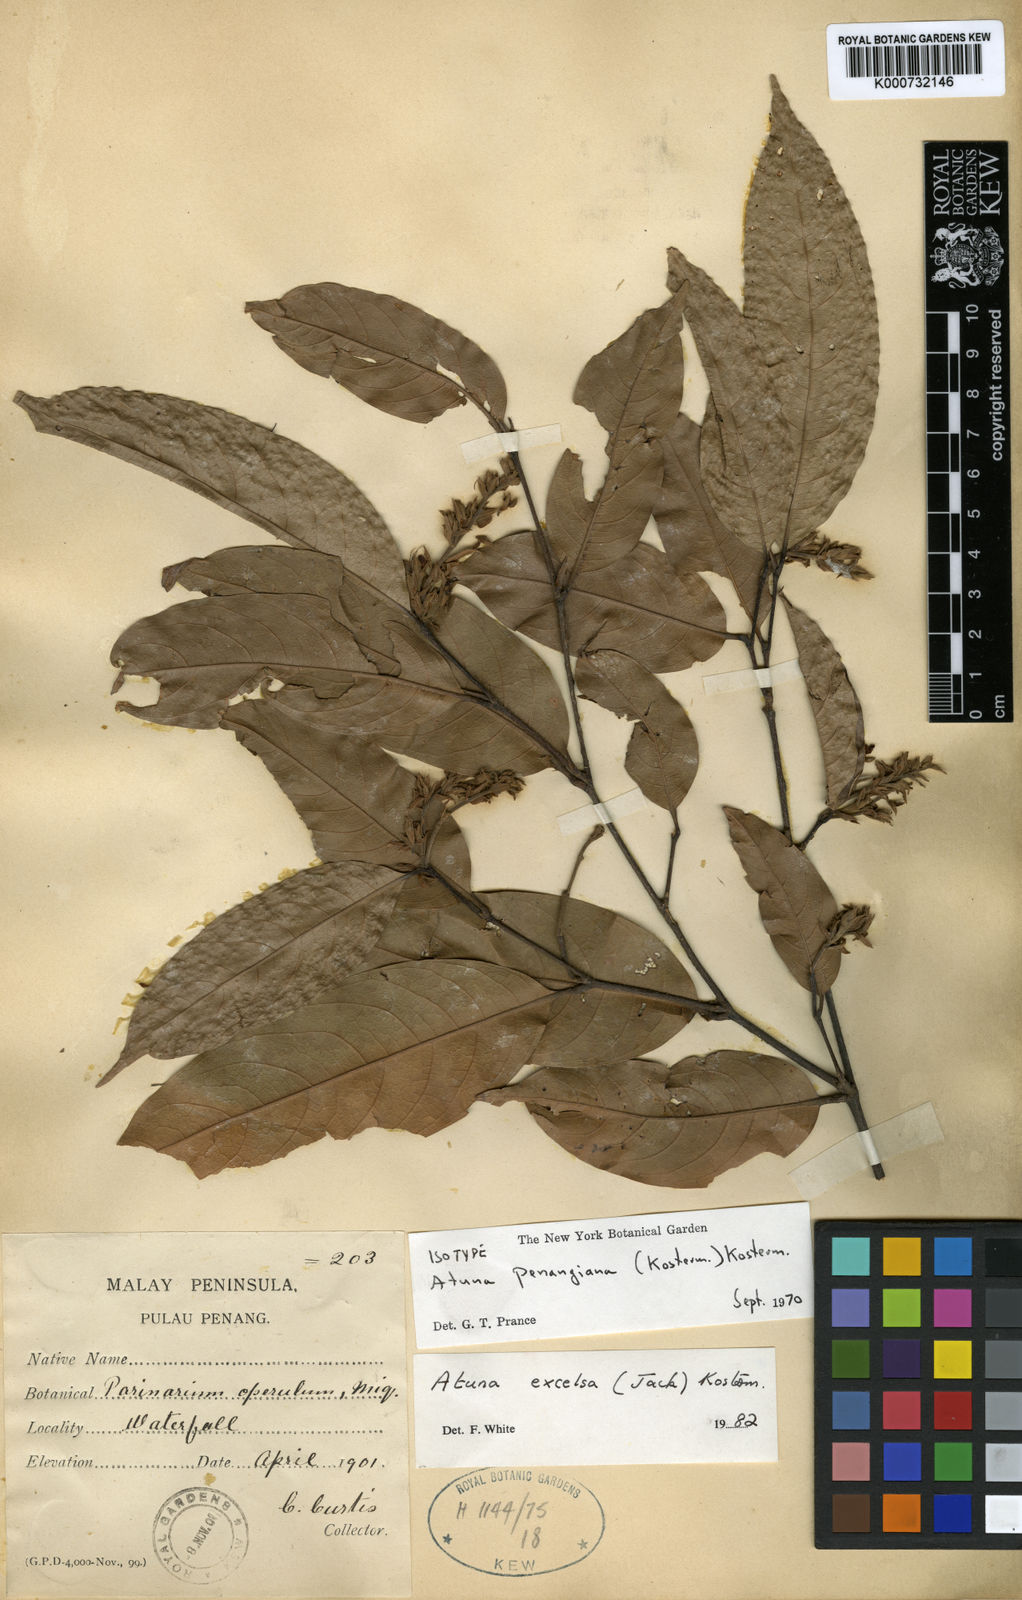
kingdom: Plantae
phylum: Tracheophyta
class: Magnoliopsida
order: Malpighiales
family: Chrysobalanaceae
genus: Atuna
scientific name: Atuna penangiana
